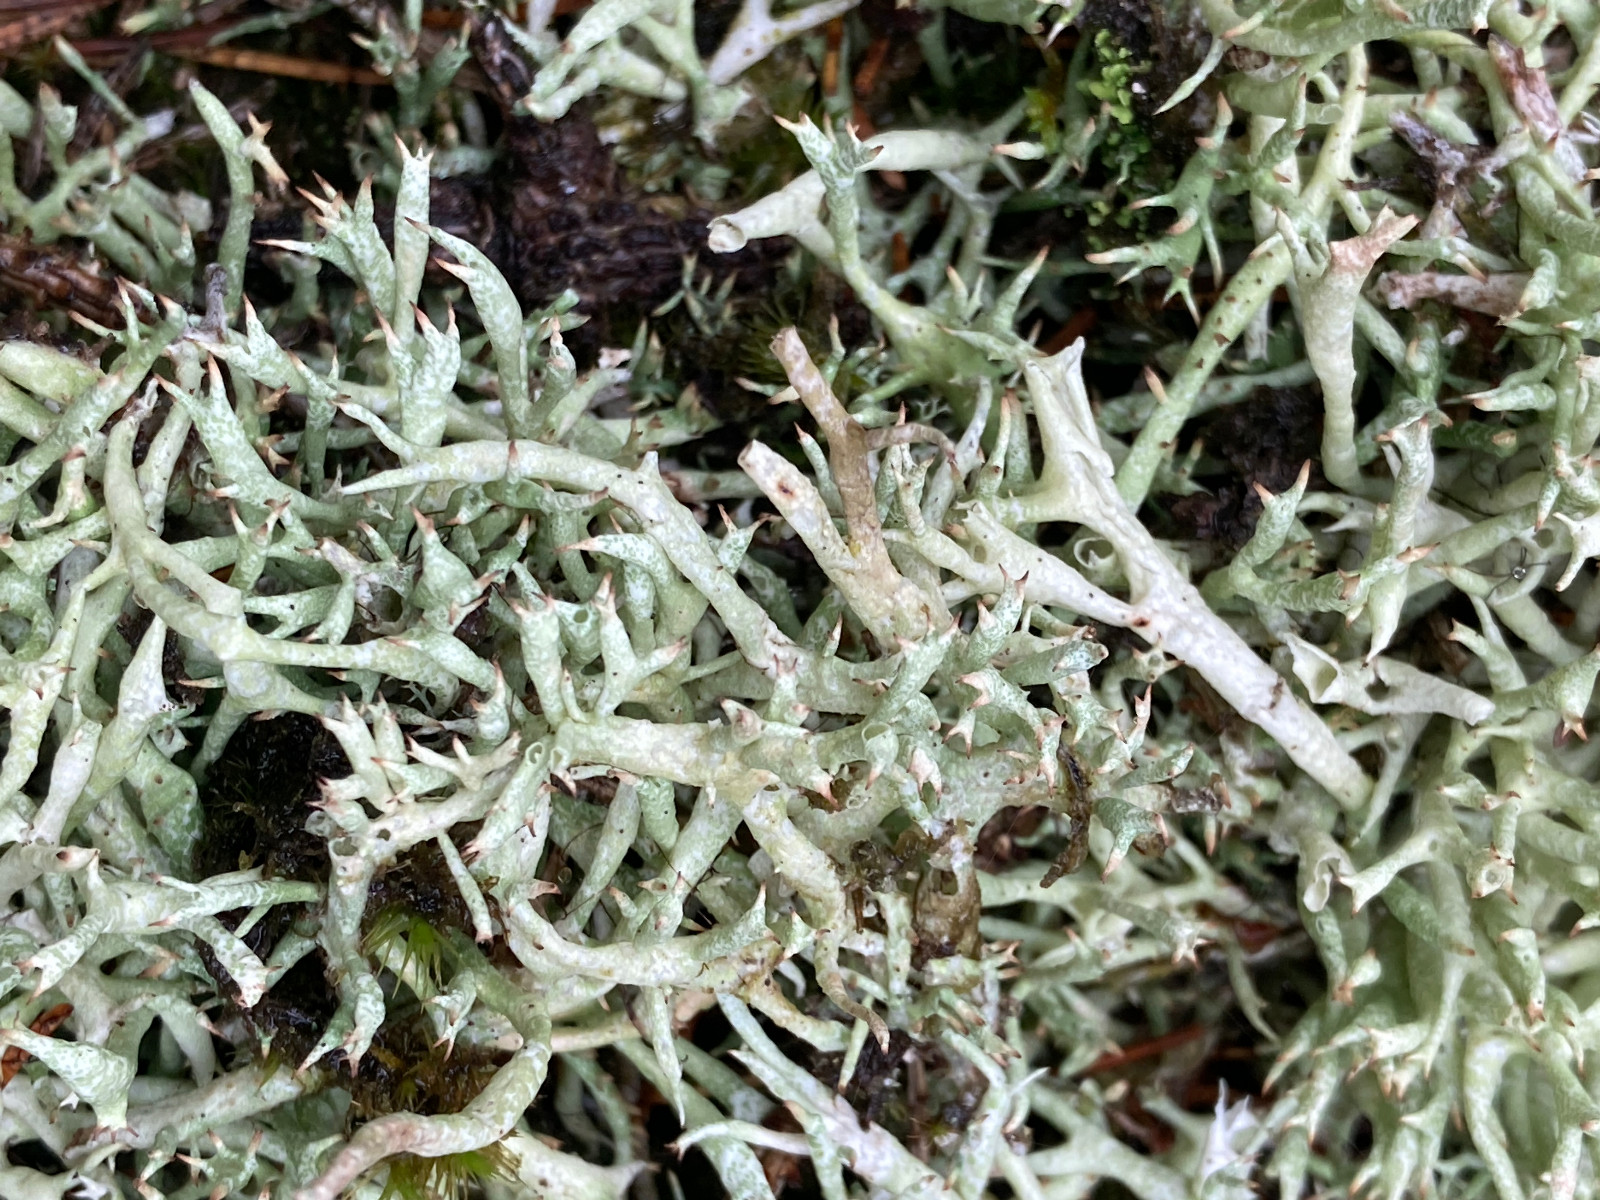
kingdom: Fungi
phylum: Ascomycota
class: Lecanoromycetes
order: Lecanorales
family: Cladoniaceae
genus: Cladonia
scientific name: Cladonia uncialis
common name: pigget bægerlav
